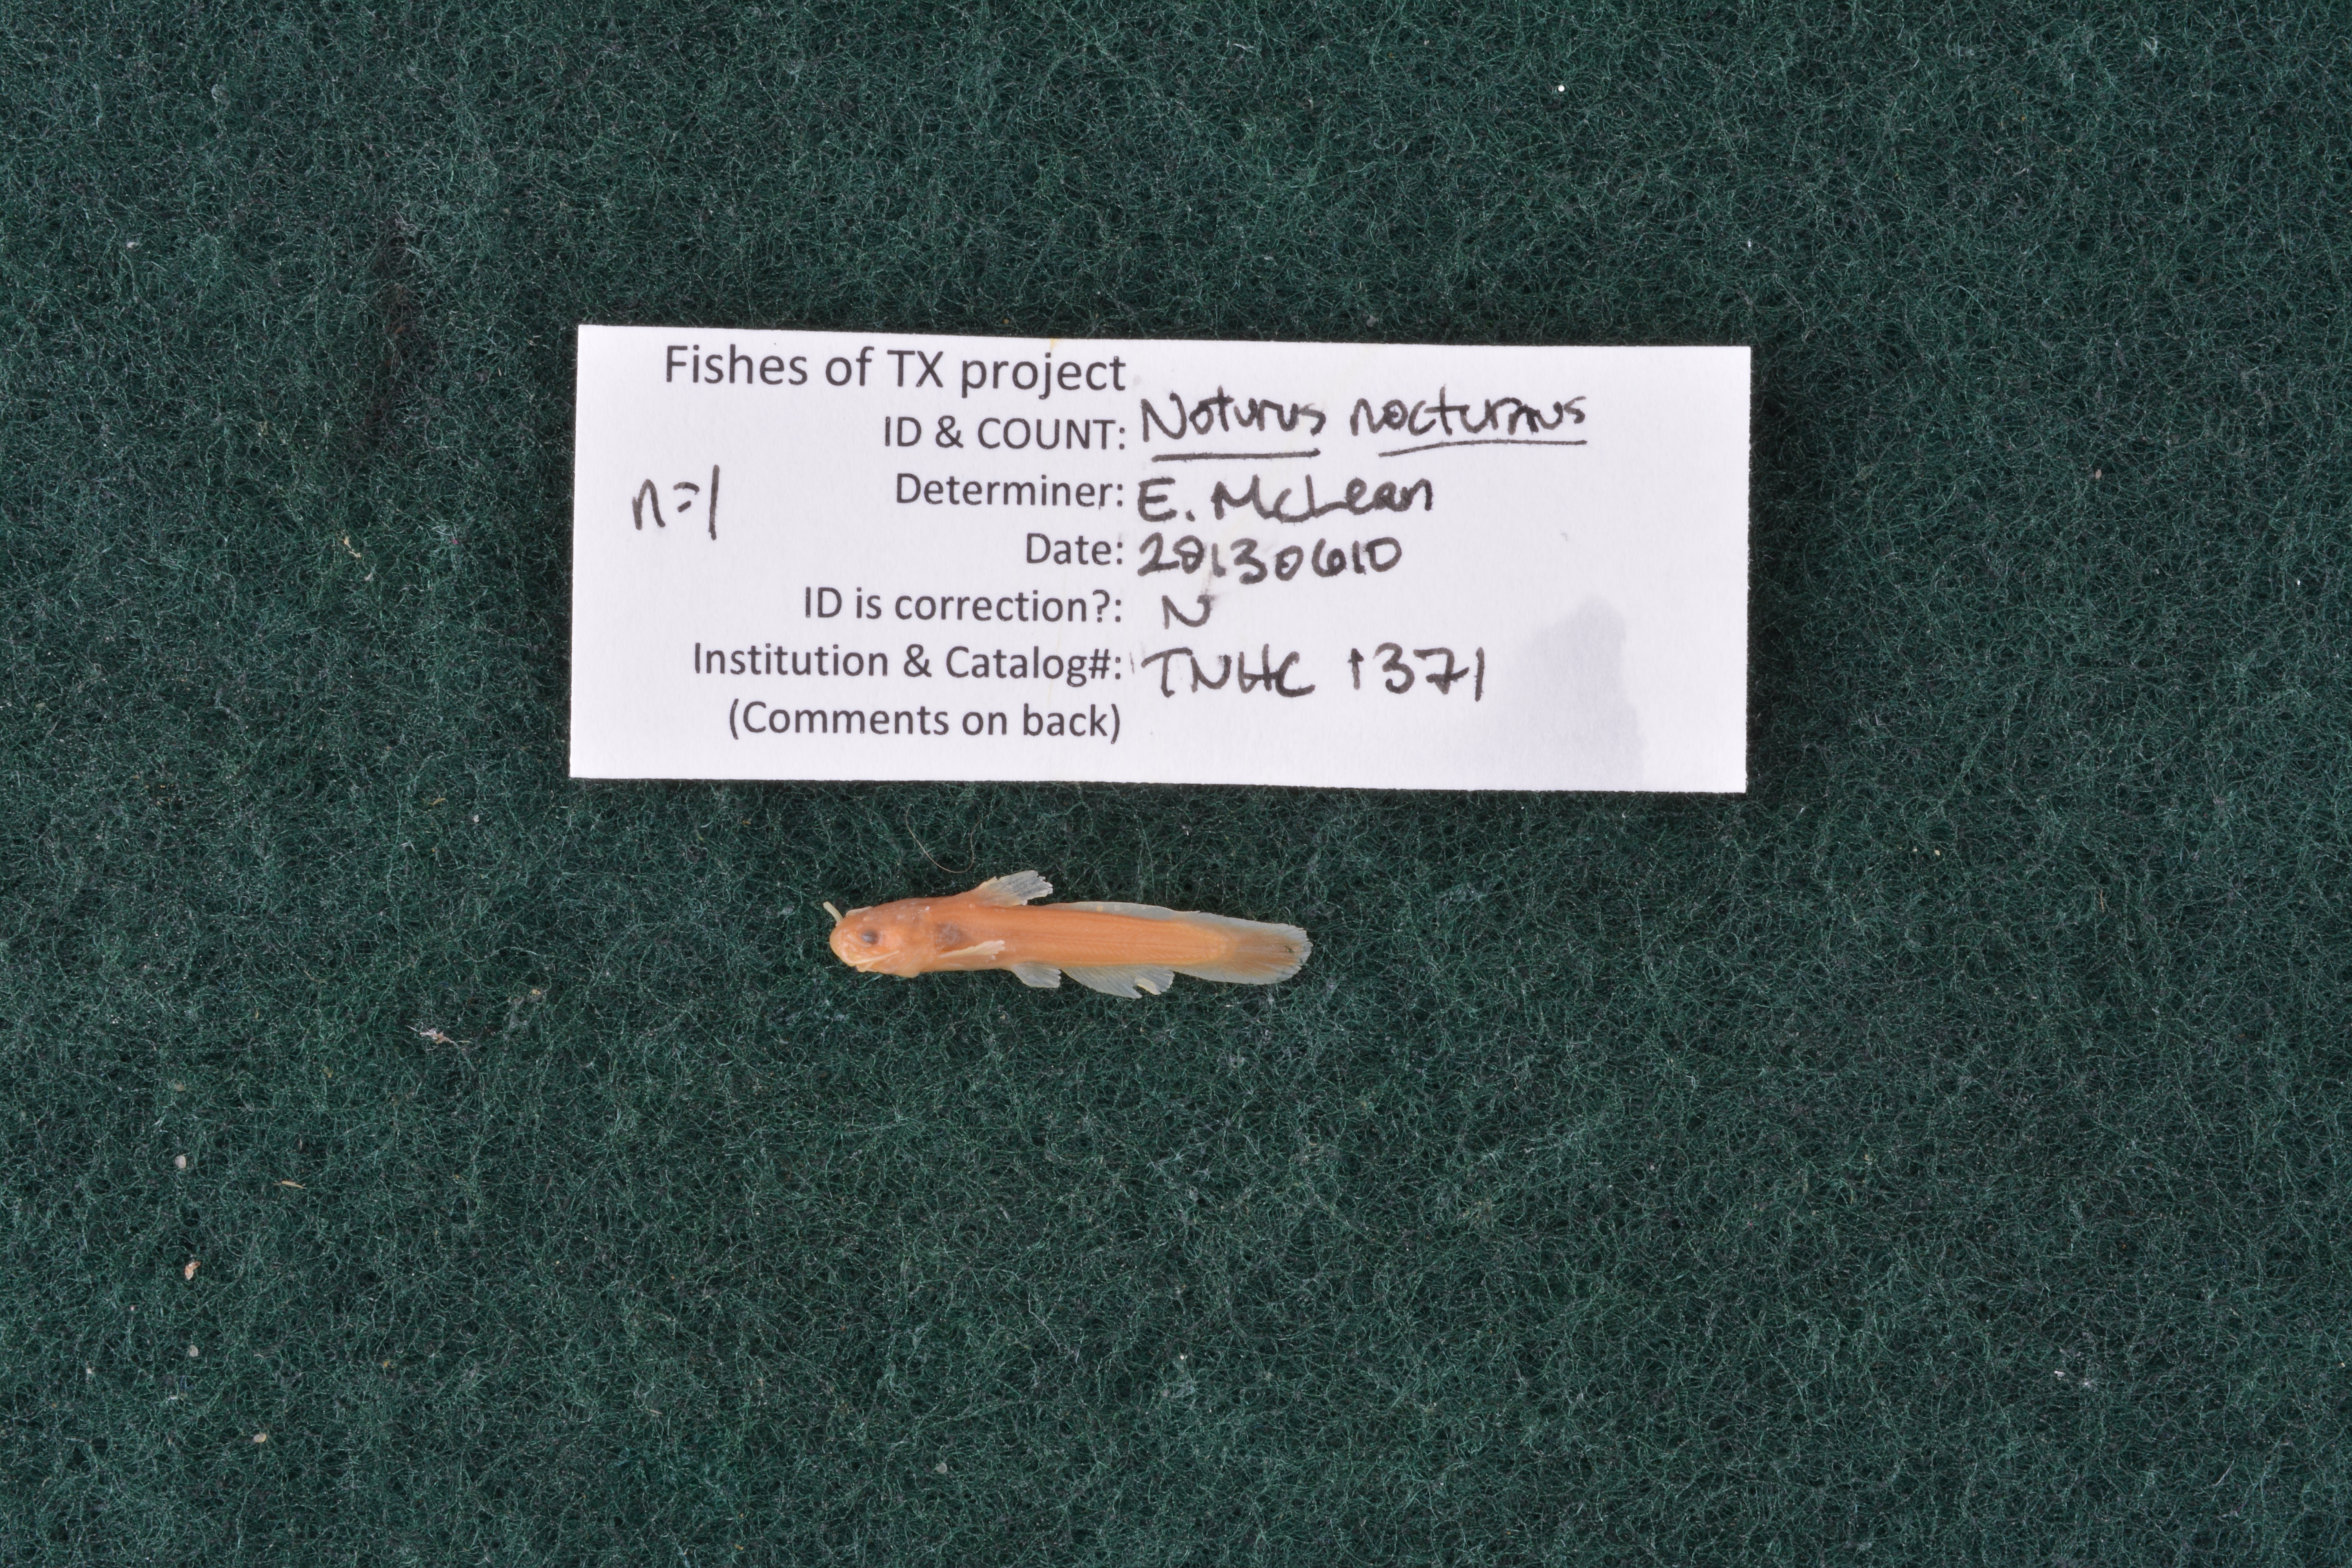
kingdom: Animalia
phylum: Chordata
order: Siluriformes
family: Ictaluridae
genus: Noturus
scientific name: Noturus nocturnus
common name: Freckled madtom
